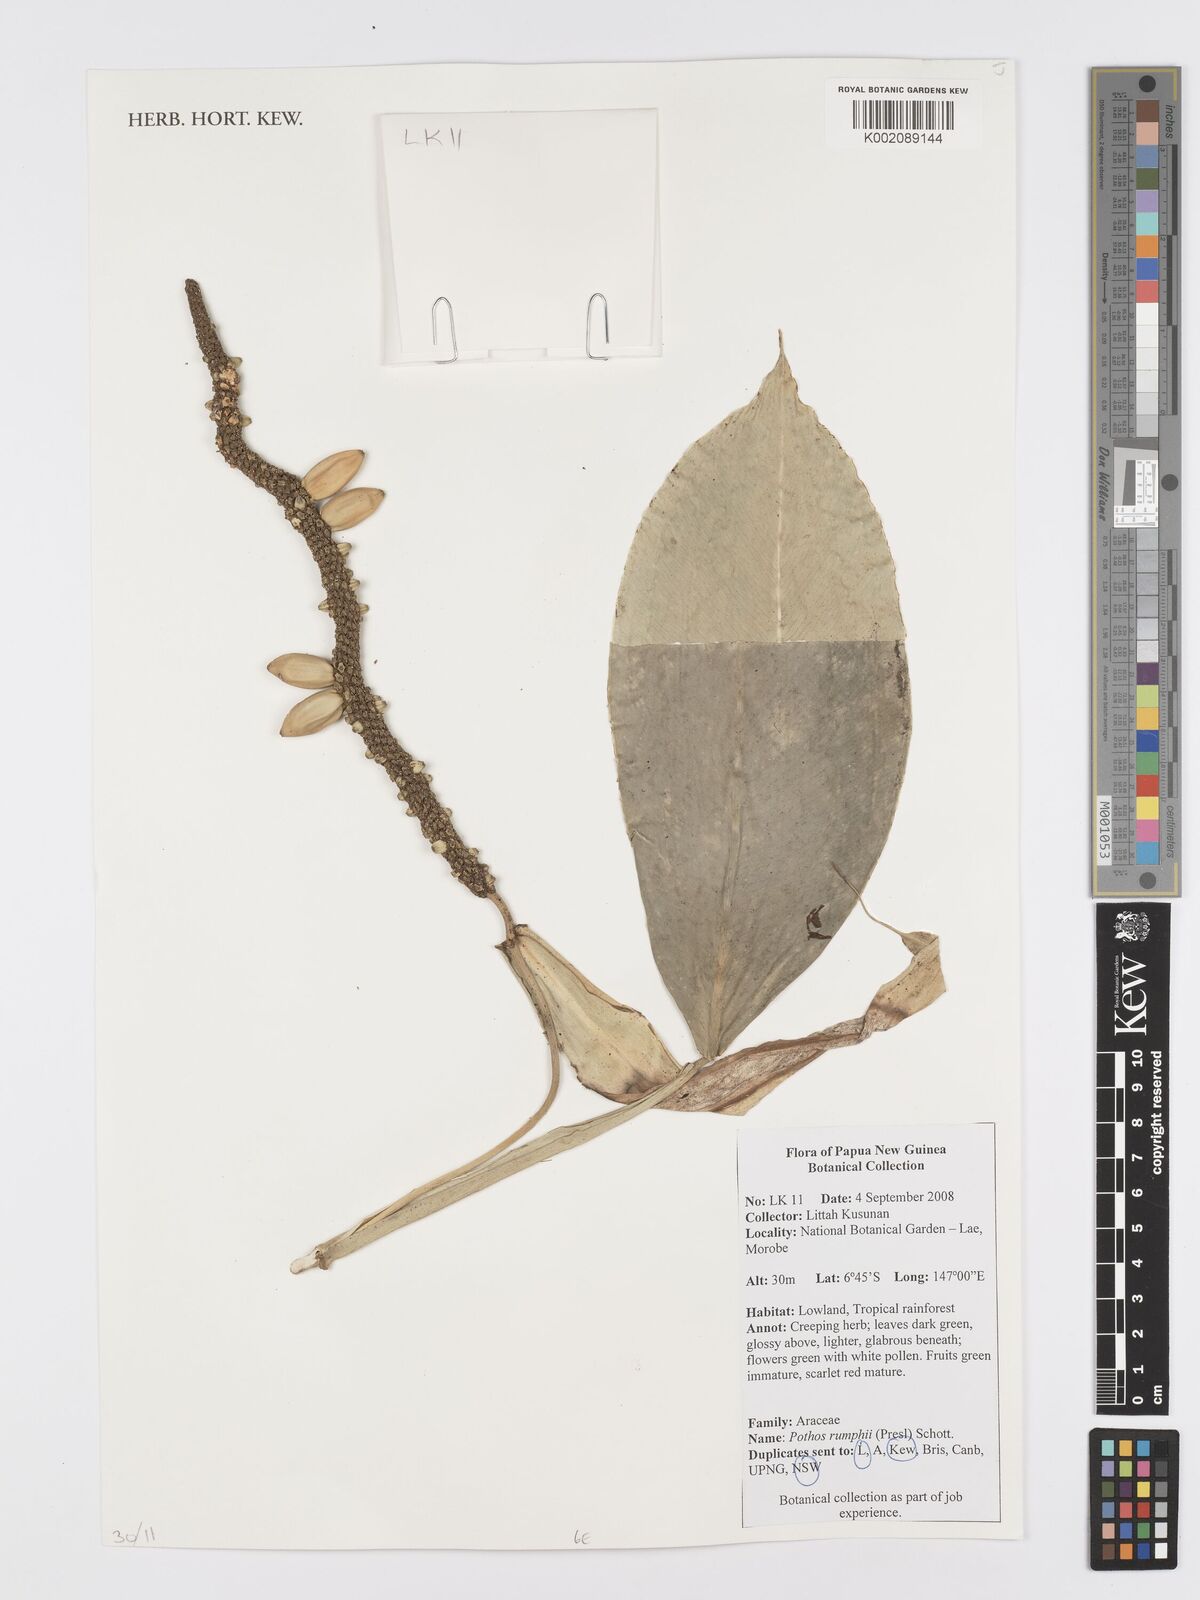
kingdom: Plantae
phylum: Tracheophyta
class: Liliopsida
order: Alismatales
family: Araceae
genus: Pothos
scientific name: Pothos tener
